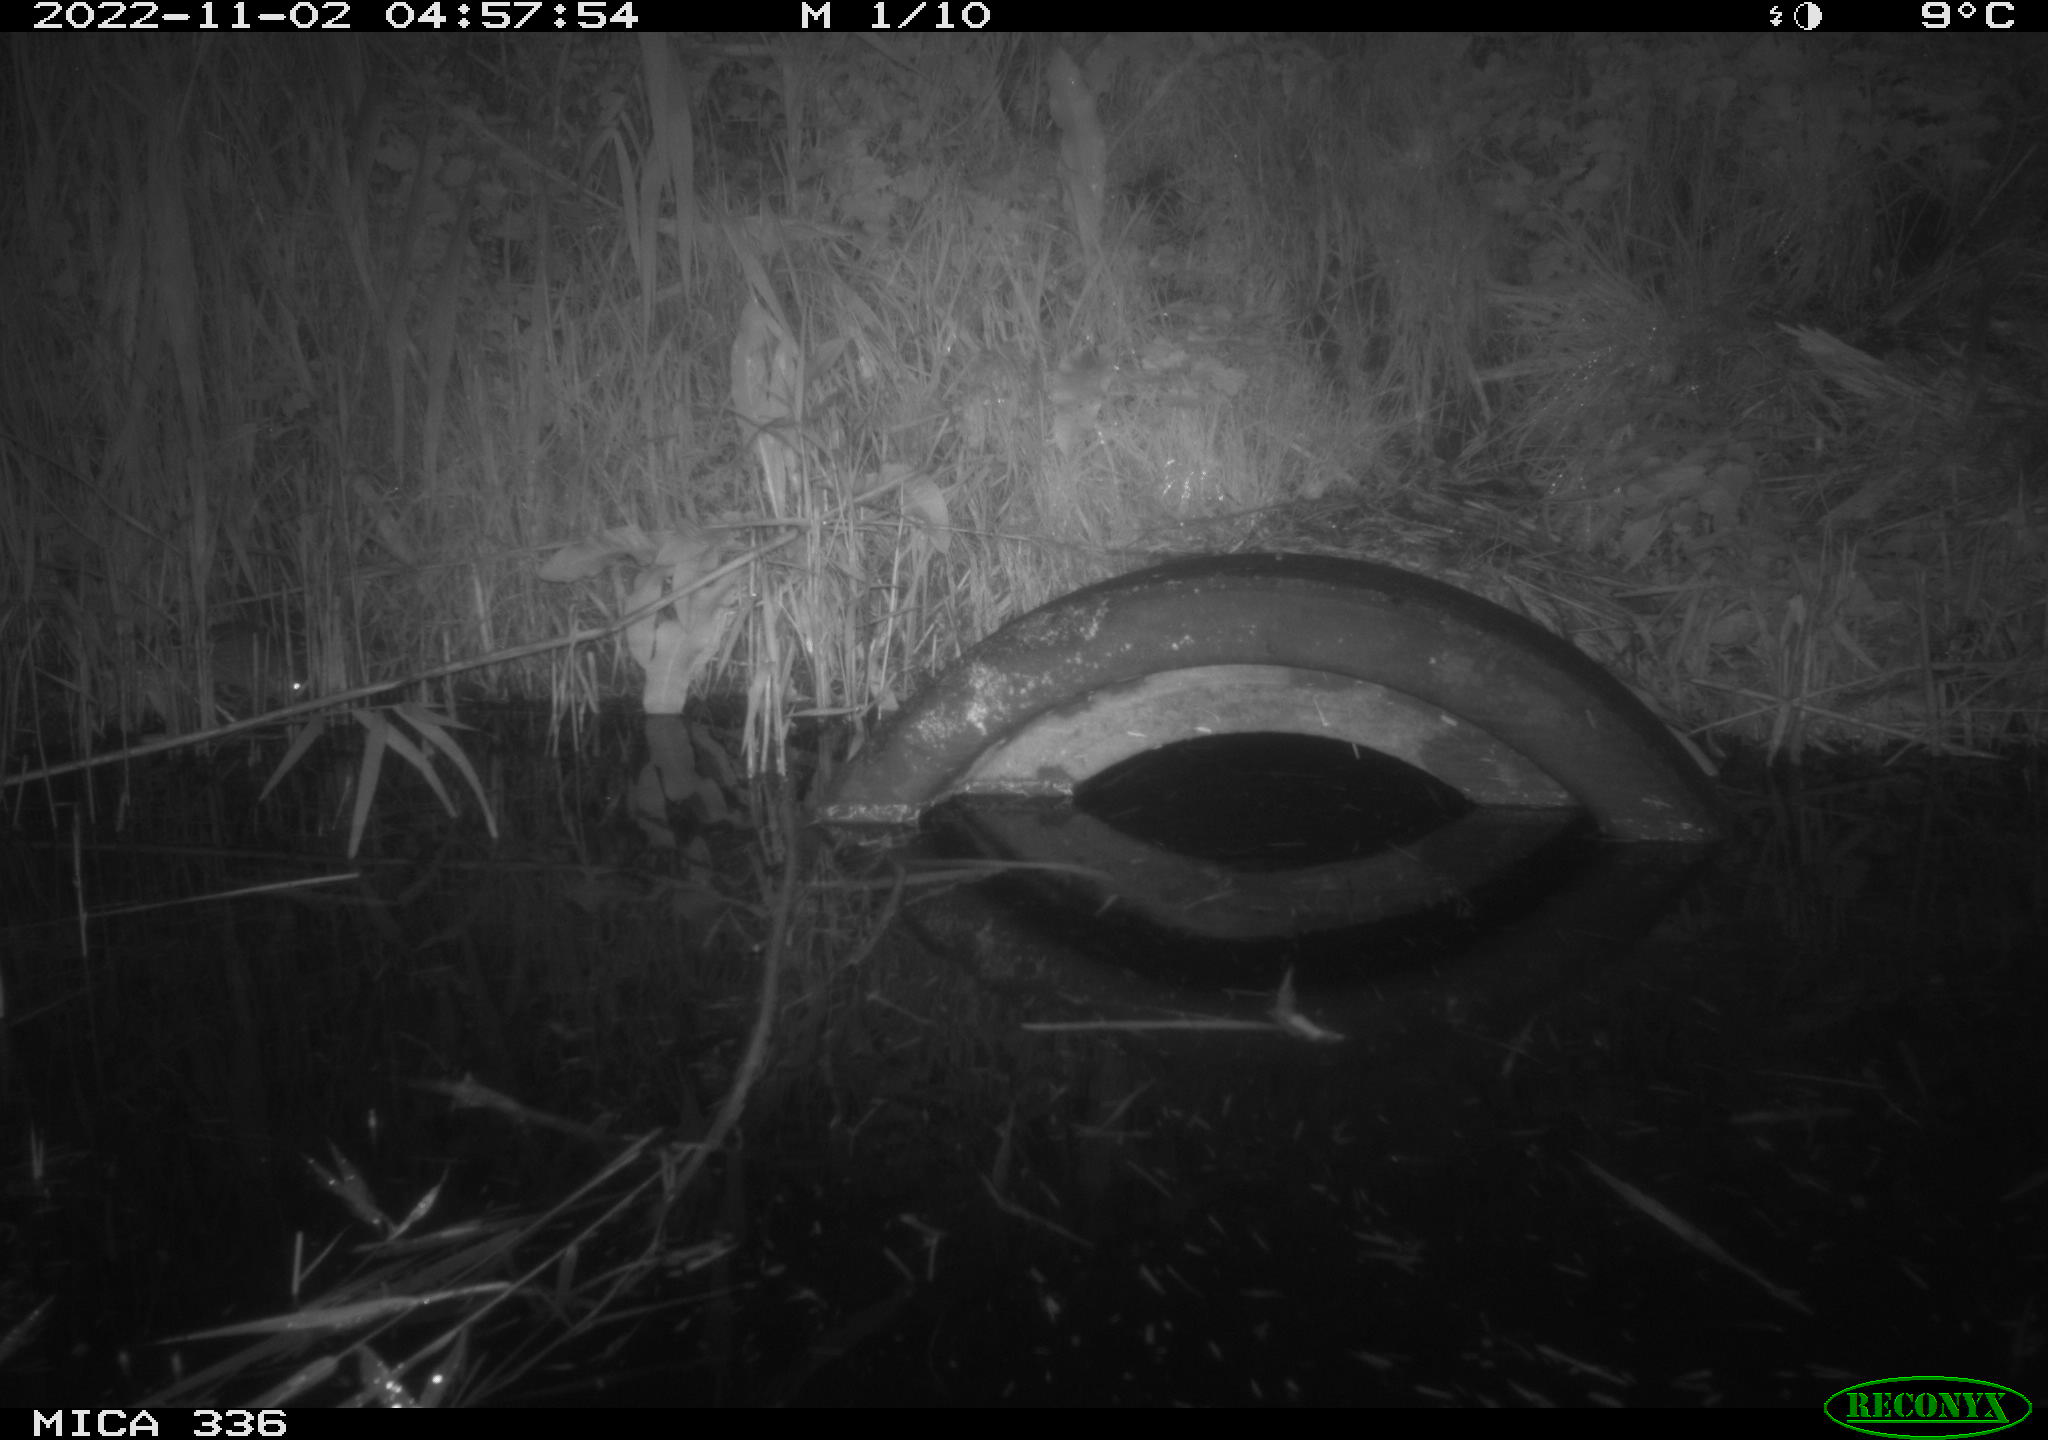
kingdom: Animalia
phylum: Chordata
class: Mammalia
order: Rodentia
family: Muridae
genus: Rattus
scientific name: Rattus norvegicus
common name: Brown rat
